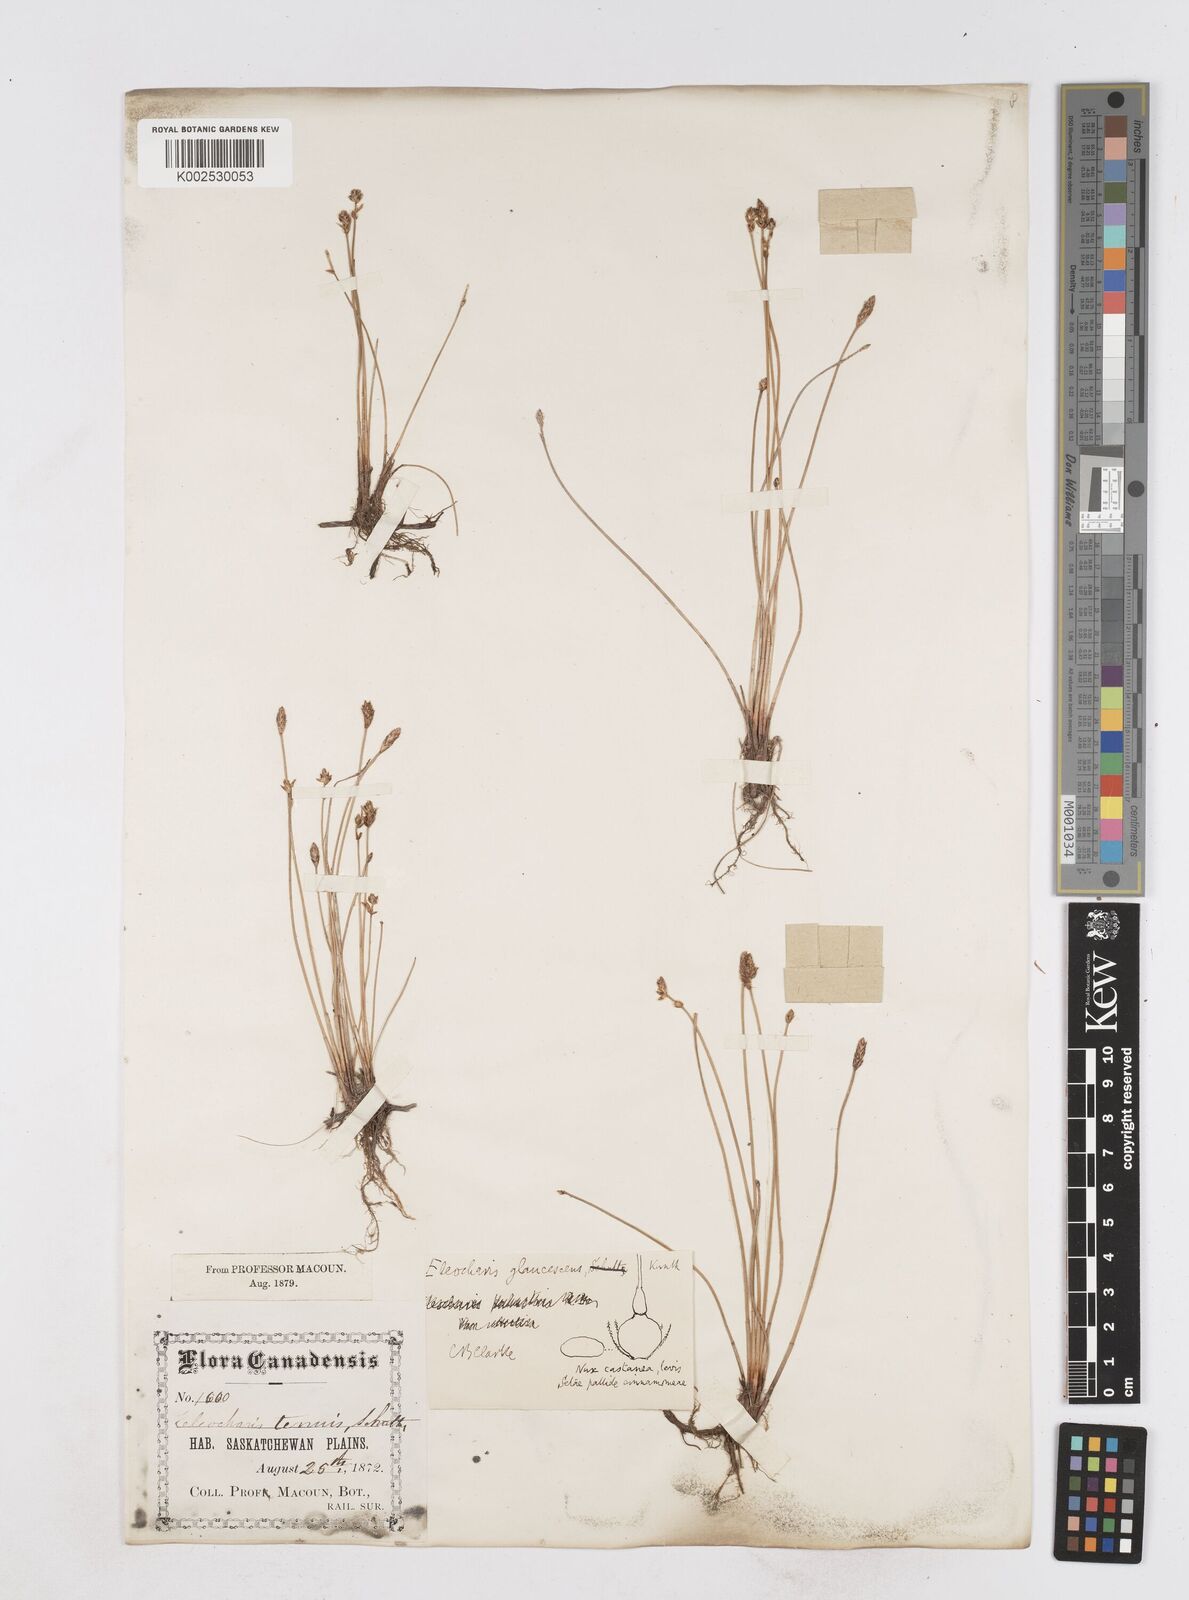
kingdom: Plantae
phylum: Tracheophyta
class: Liliopsida
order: Poales
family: Cyperaceae
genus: Eleocharis
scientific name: Eleocharis palustris
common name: Common spike-rush
